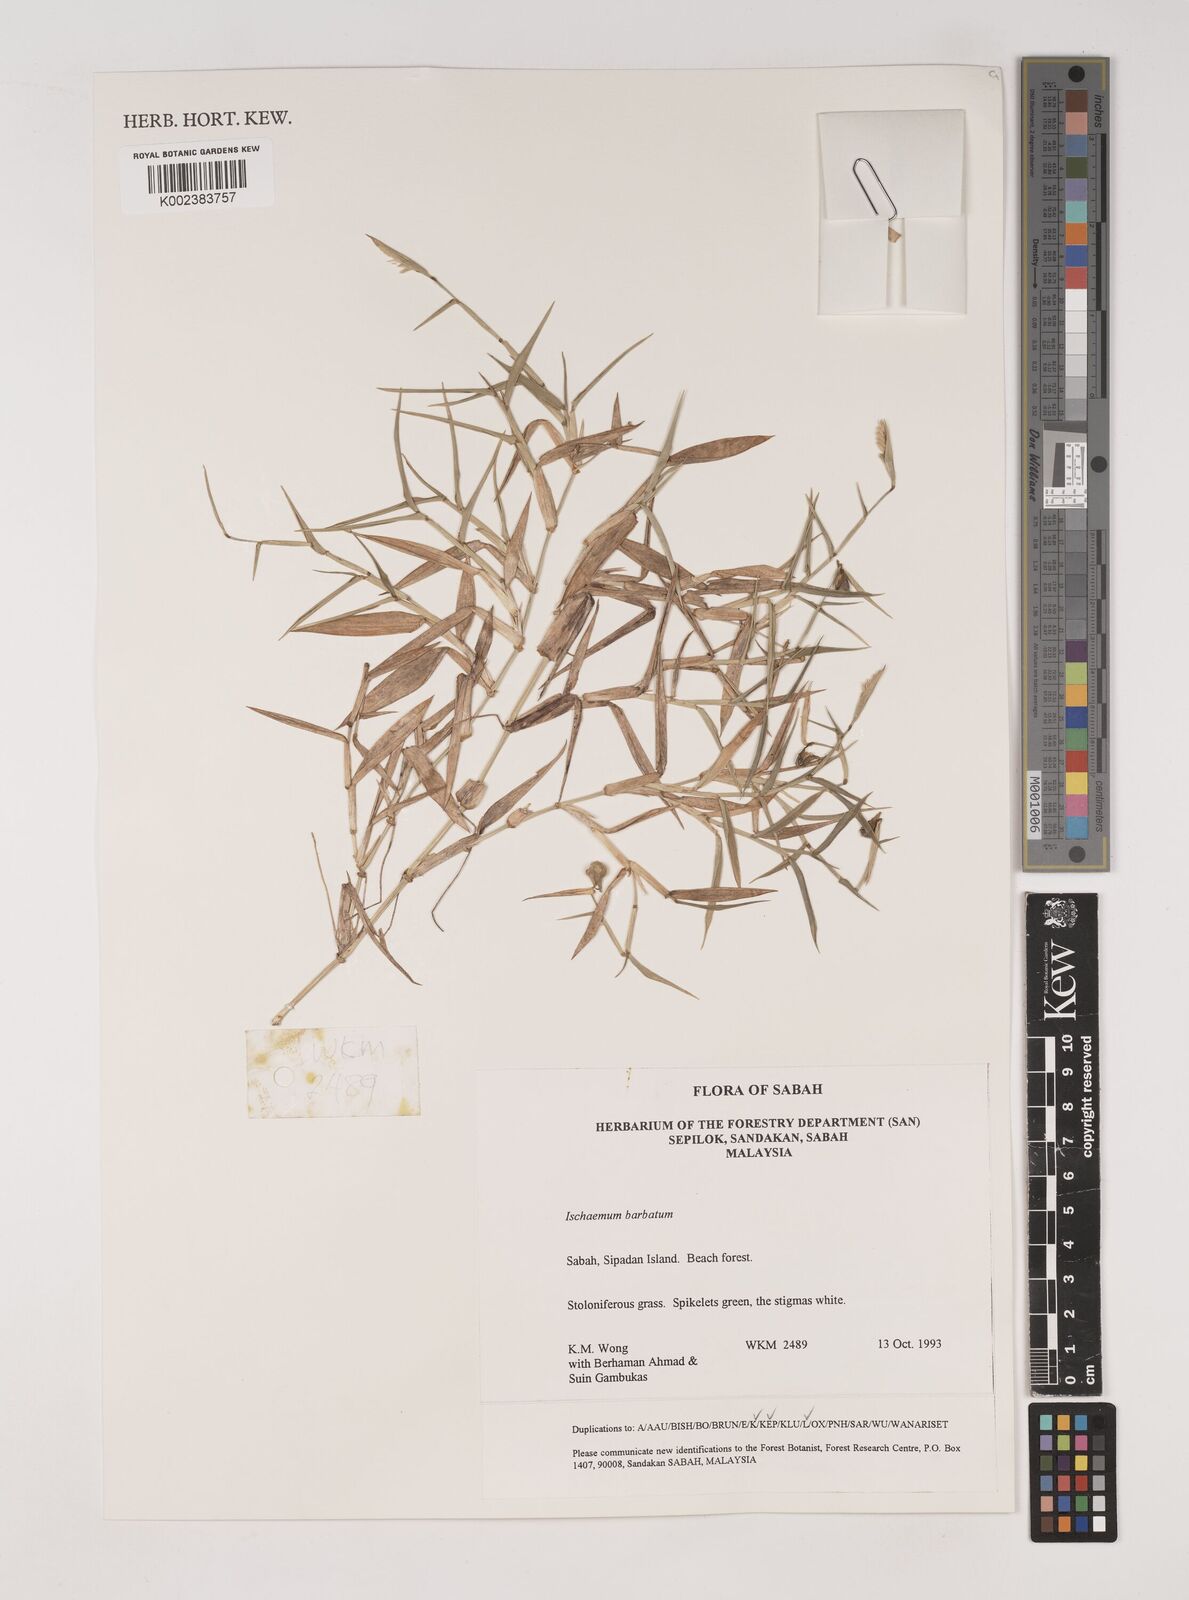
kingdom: Plantae
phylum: Tracheophyta
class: Liliopsida
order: Poales
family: Poaceae
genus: Ischaemum
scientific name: Ischaemum barbatum
